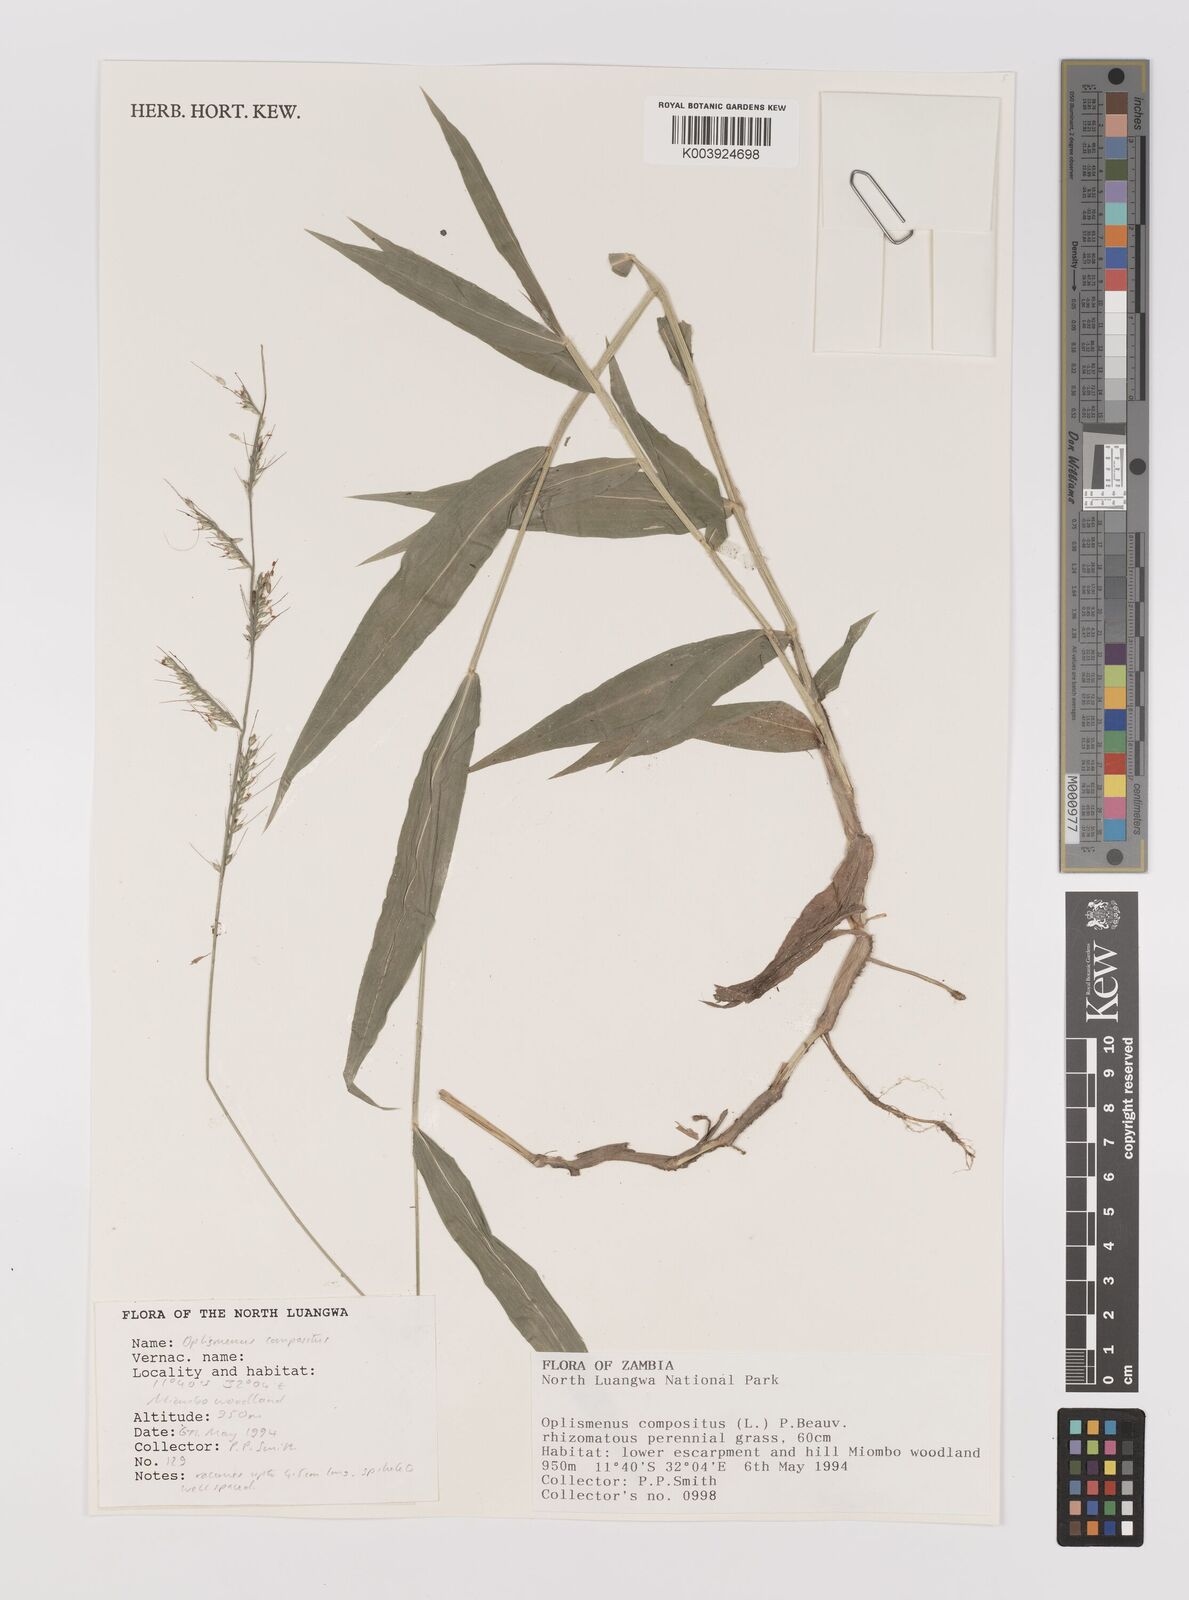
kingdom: Plantae
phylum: Tracheophyta
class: Liliopsida
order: Poales
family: Poaceae
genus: Oplismenus
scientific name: Oplismenus compositus
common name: Running mountain grass
